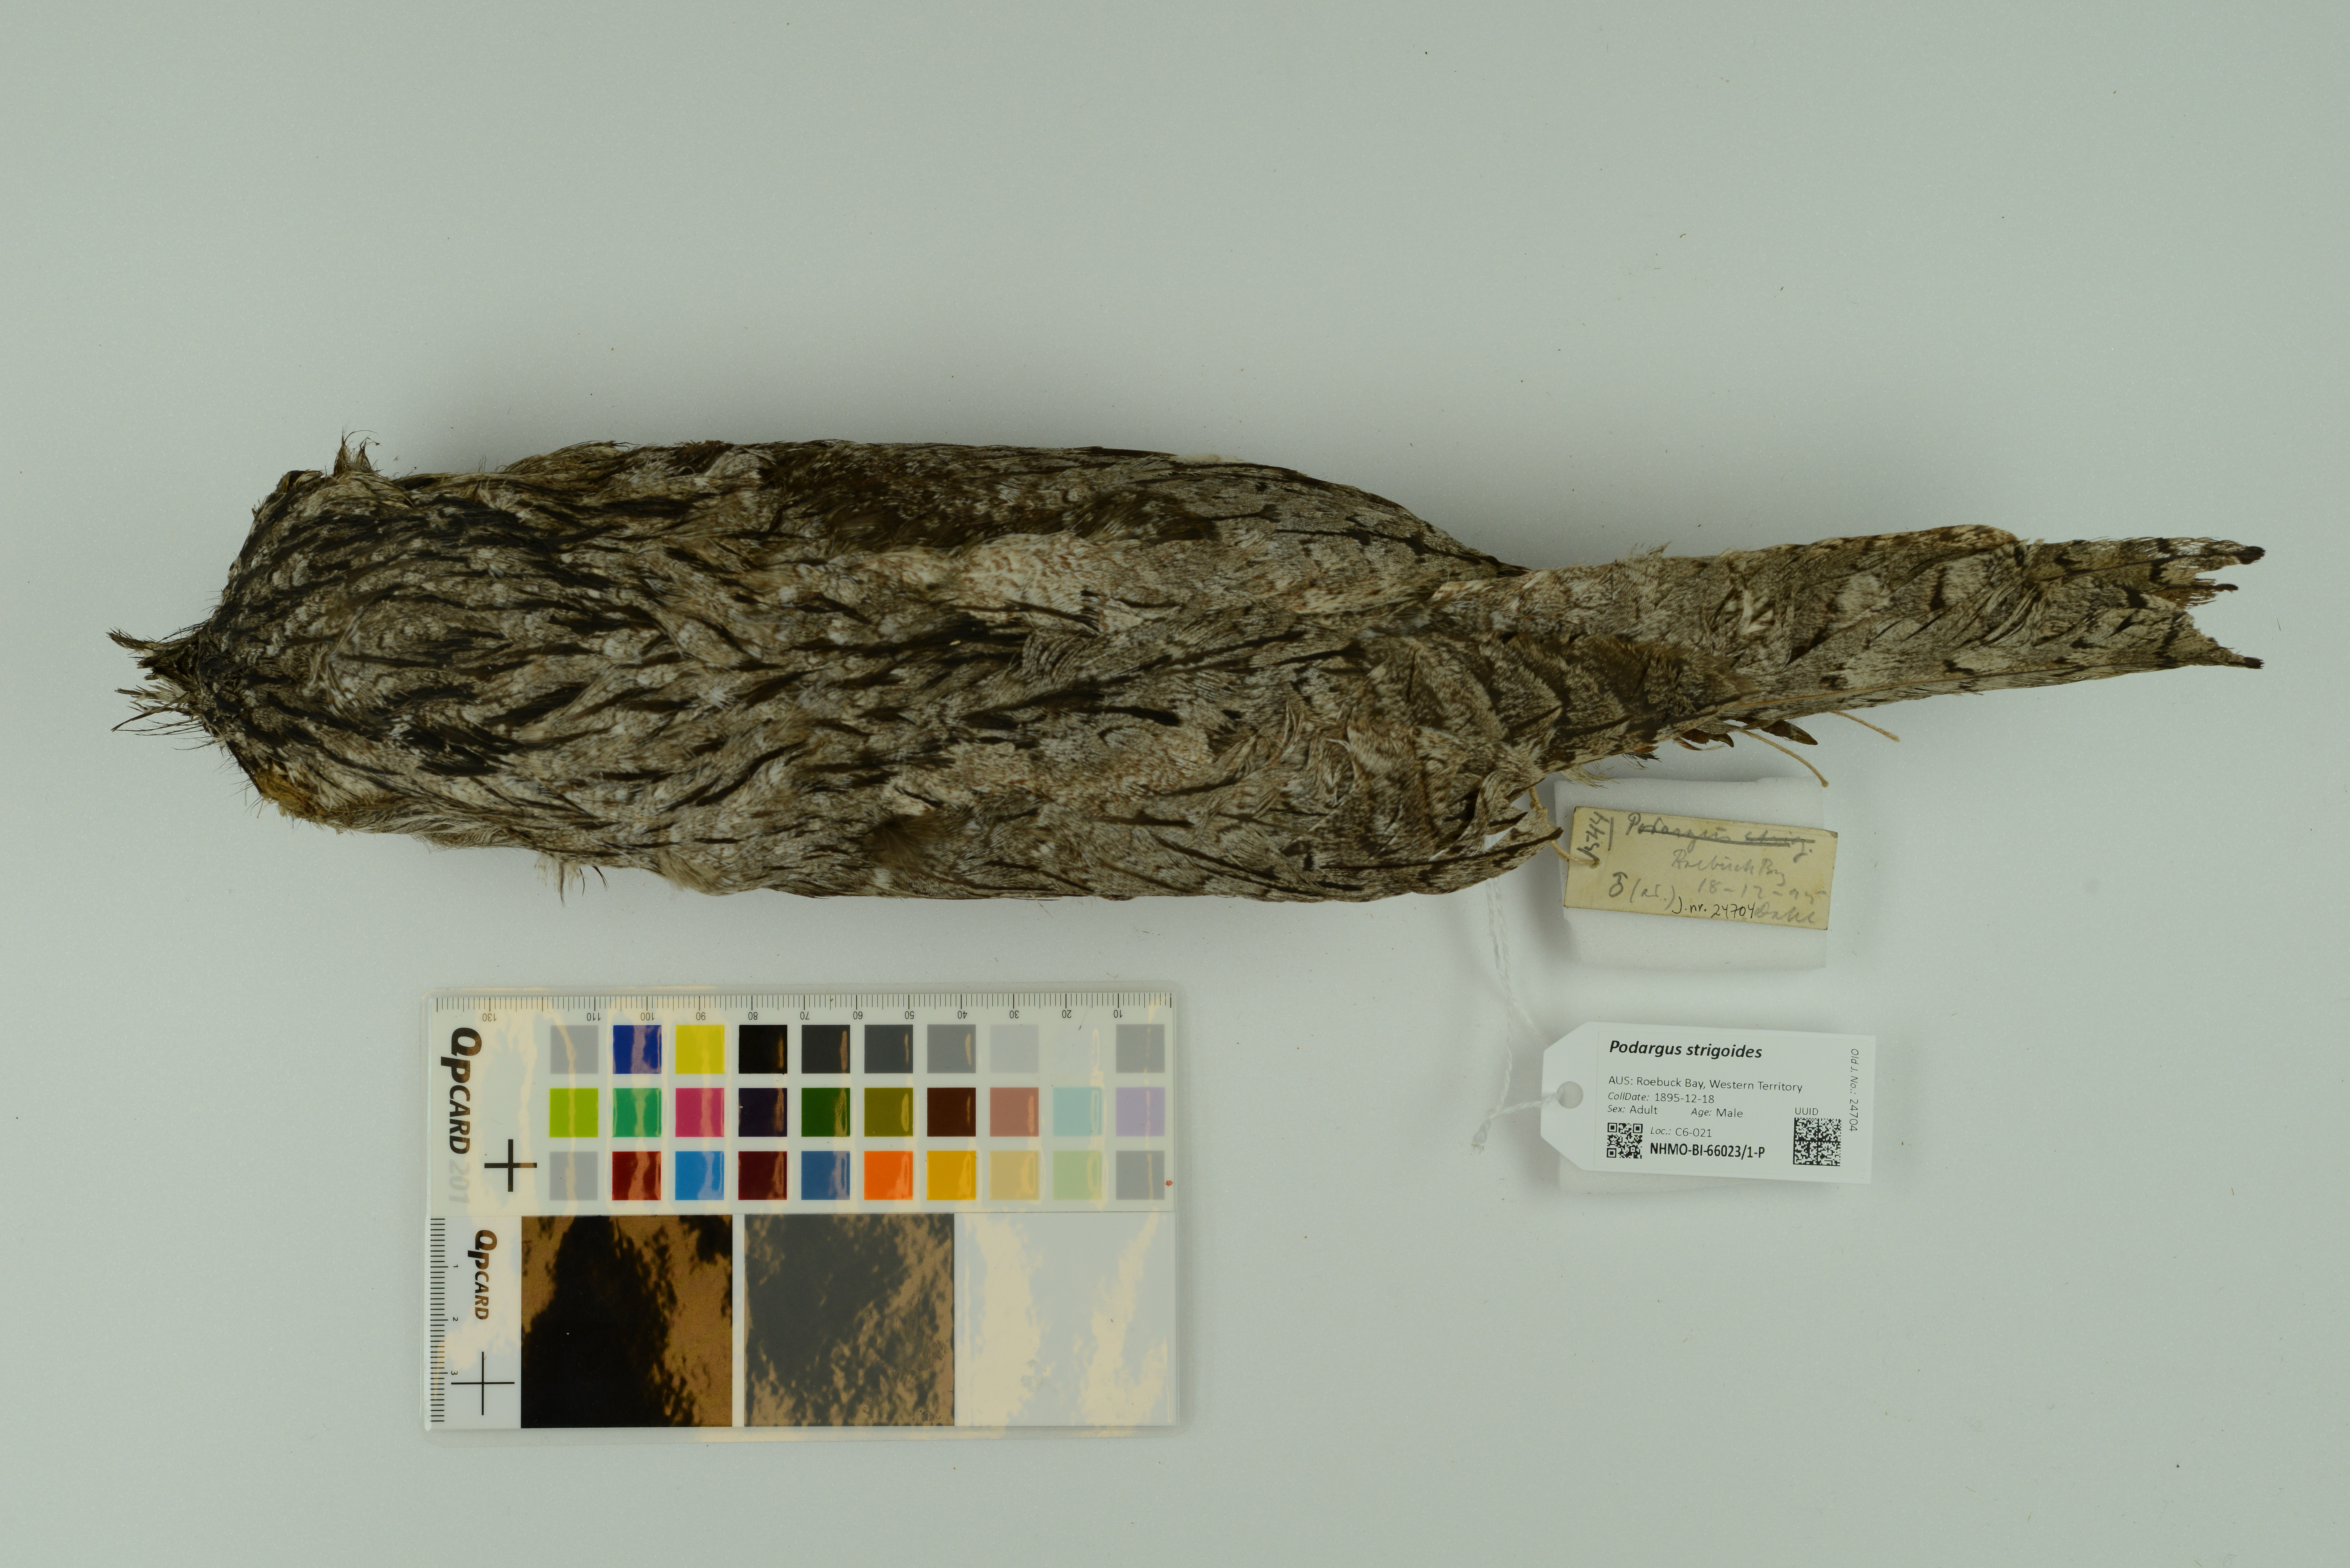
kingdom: Animalia
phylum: Chordata
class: Aves
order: Caprimulgiformes
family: Podargidae
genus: Podargus
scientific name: Podargus strigoides
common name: Tawny frogmouth
